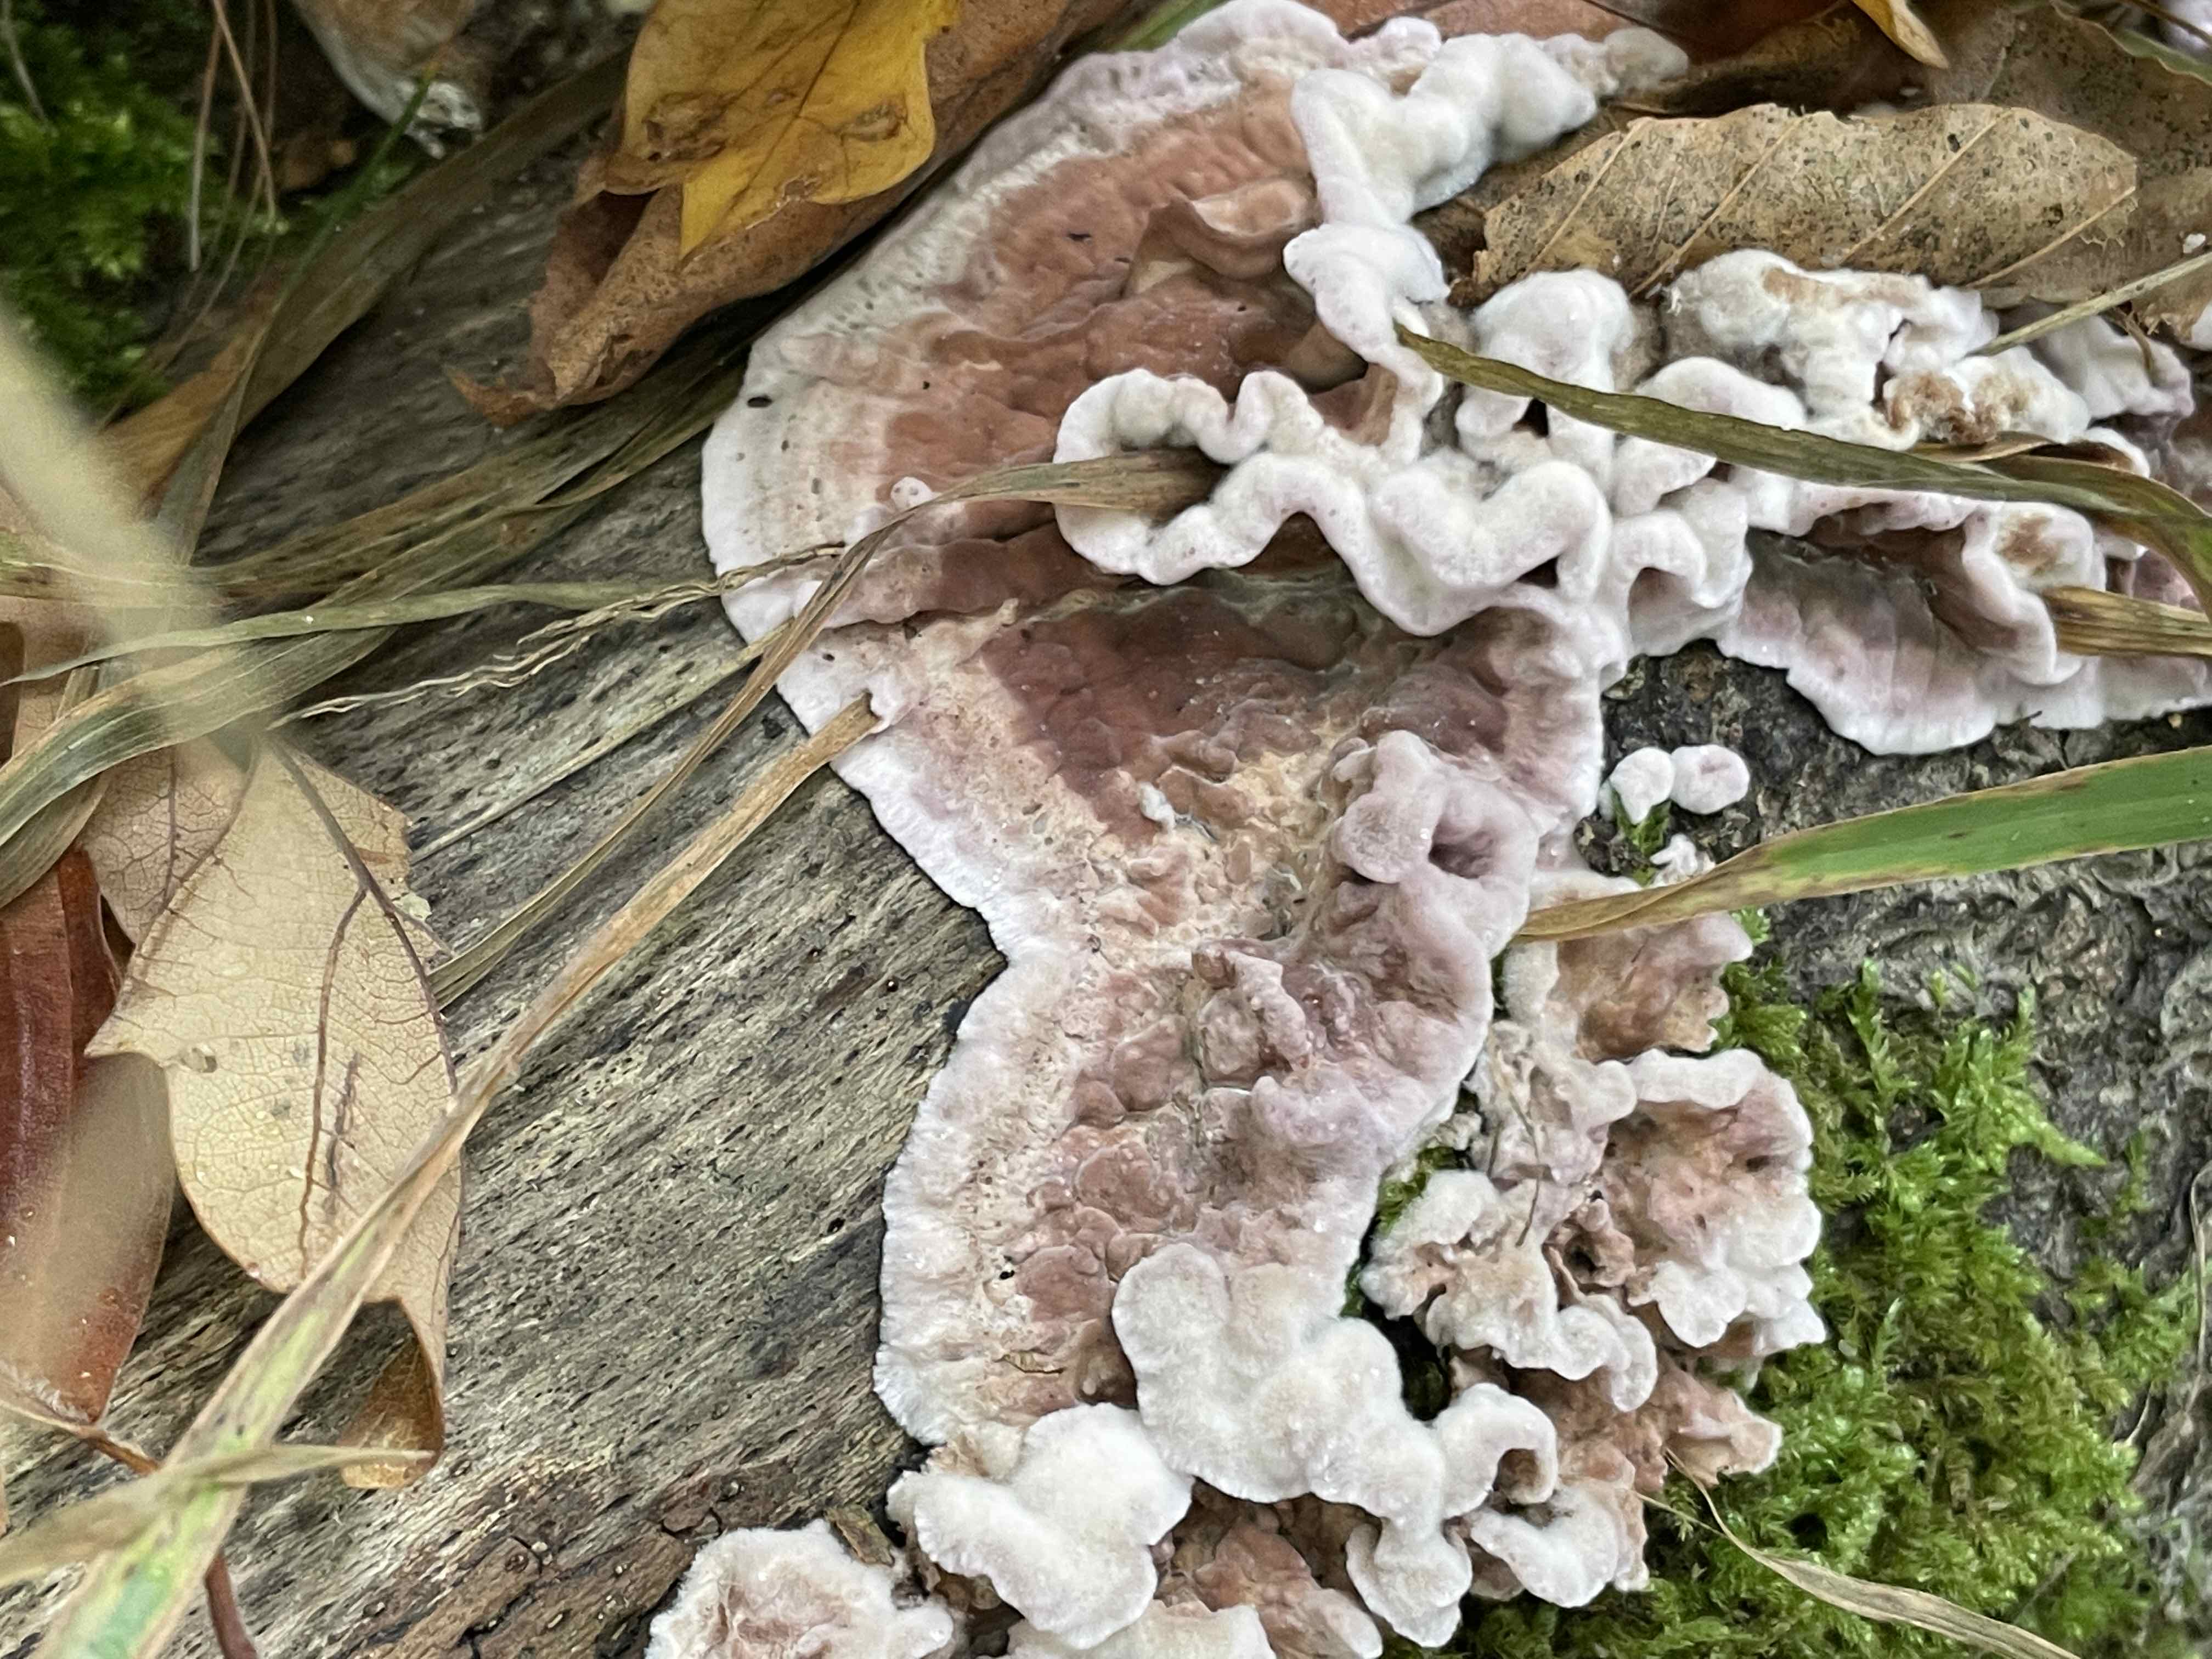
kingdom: Fungi
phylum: Basidiomycota
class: Agaricomycetes
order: Agaricales
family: Cyphellaceae
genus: Chondrostereum
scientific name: Chondrostereum purpureum
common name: purpurlædersvamp
